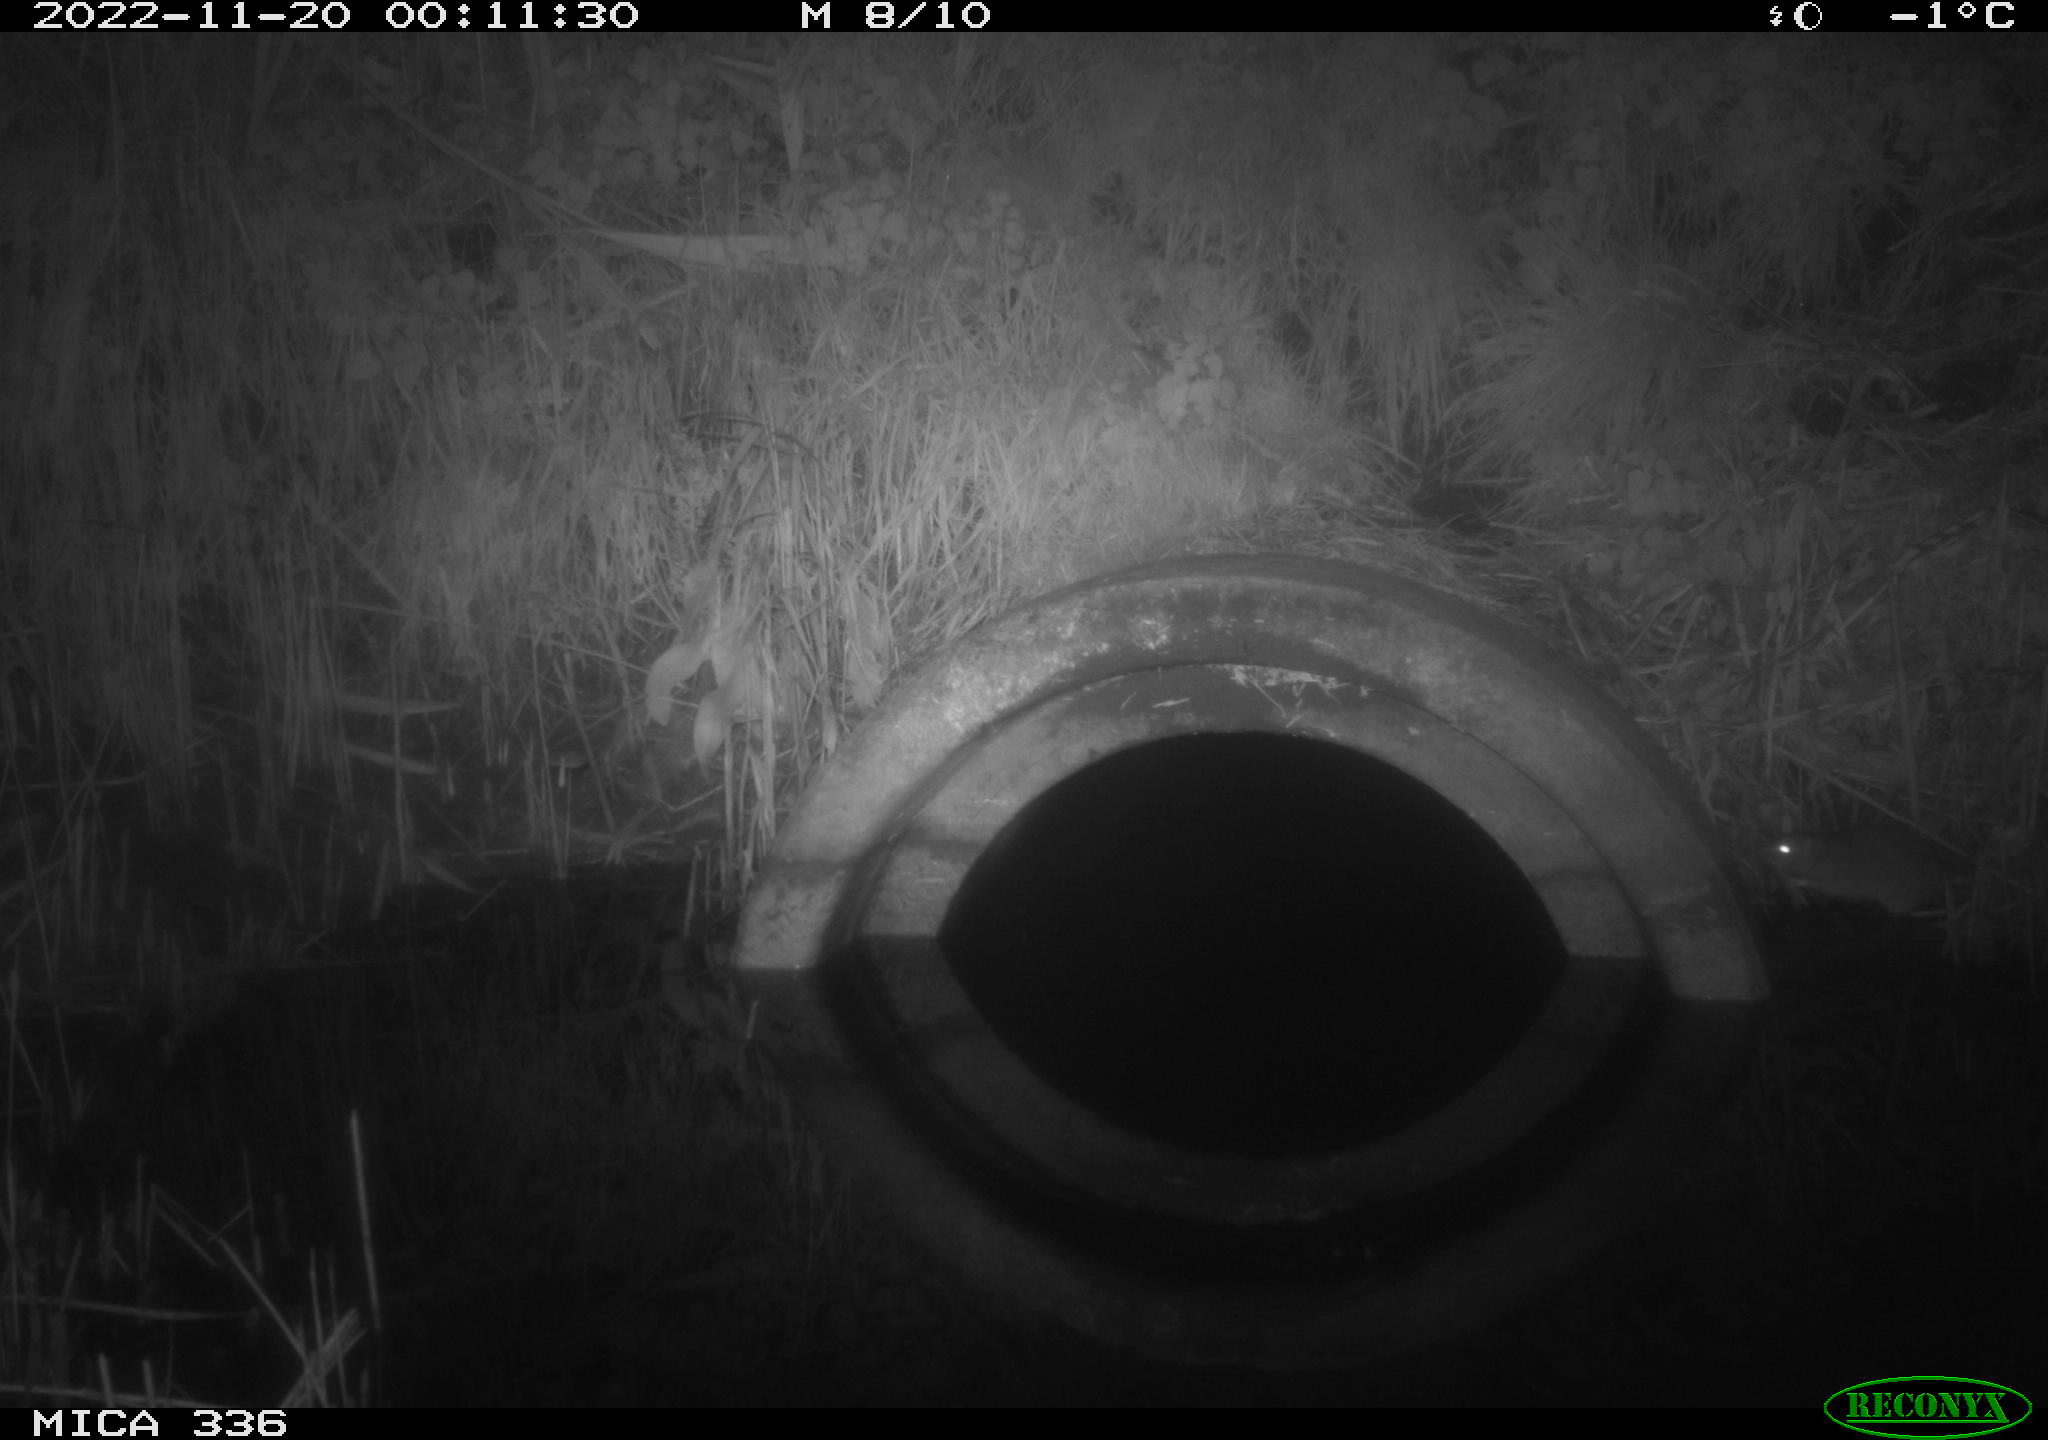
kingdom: Animalia
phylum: Chordata
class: Mammalia
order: Rodentia
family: Muridae
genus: Rattus
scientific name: Rattus norvegicus
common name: Brown rat
